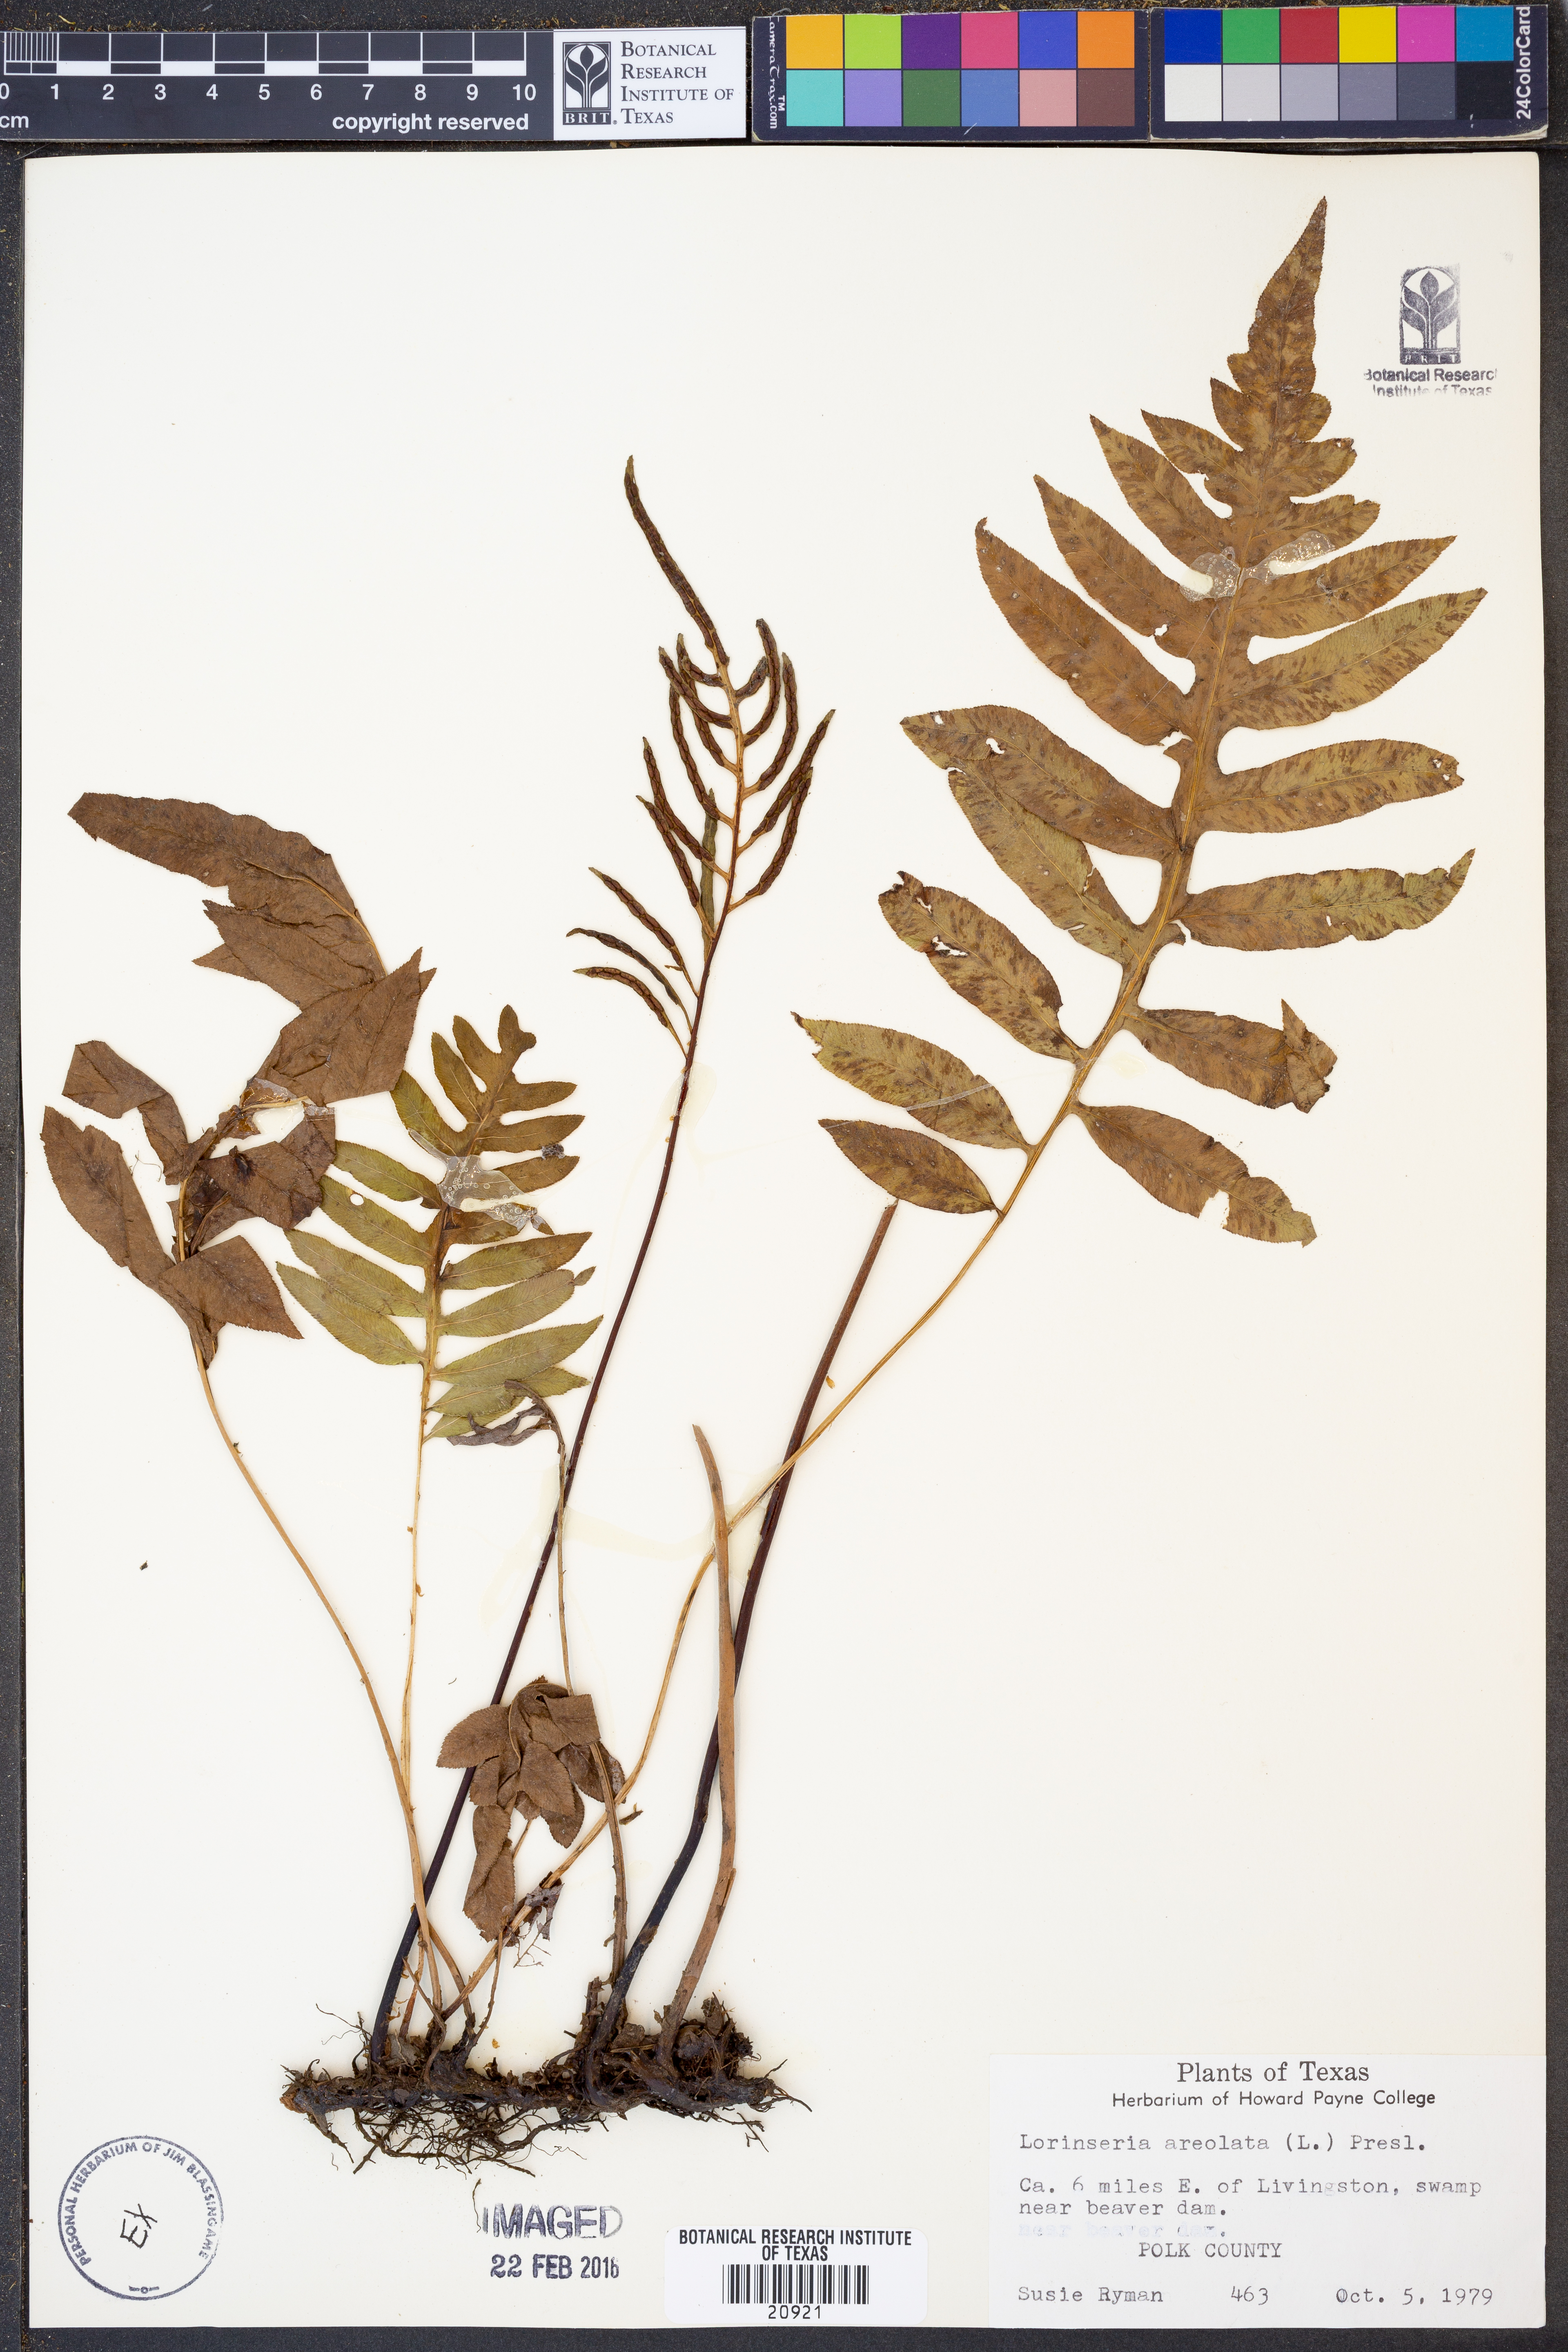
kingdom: Plantae
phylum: Tracheophyta
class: Polypodiopsida
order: Polypodiales
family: Blechnaceae
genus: Lorinseria
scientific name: Lorinseria areolata
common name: Dwarf chain fern
